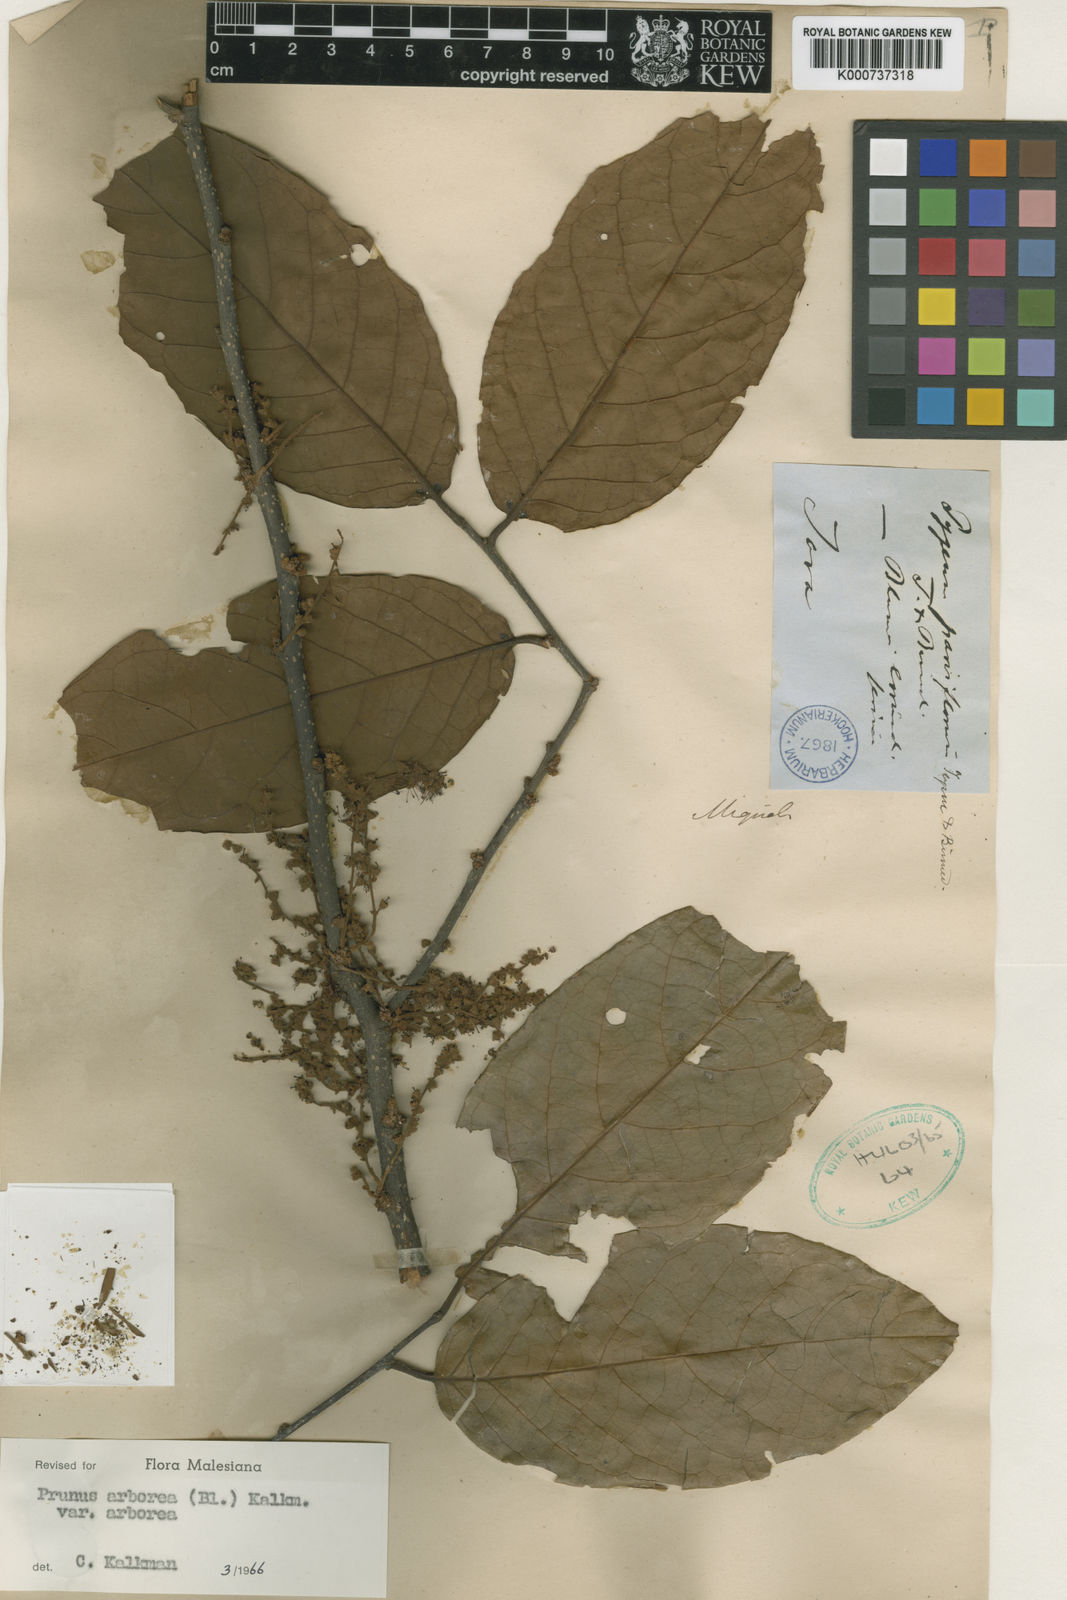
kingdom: Plantae
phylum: Tracheophyta
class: Magnoliopsida
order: Rosales
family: Rosaceae
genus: Prunus
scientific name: Prunus arborea
